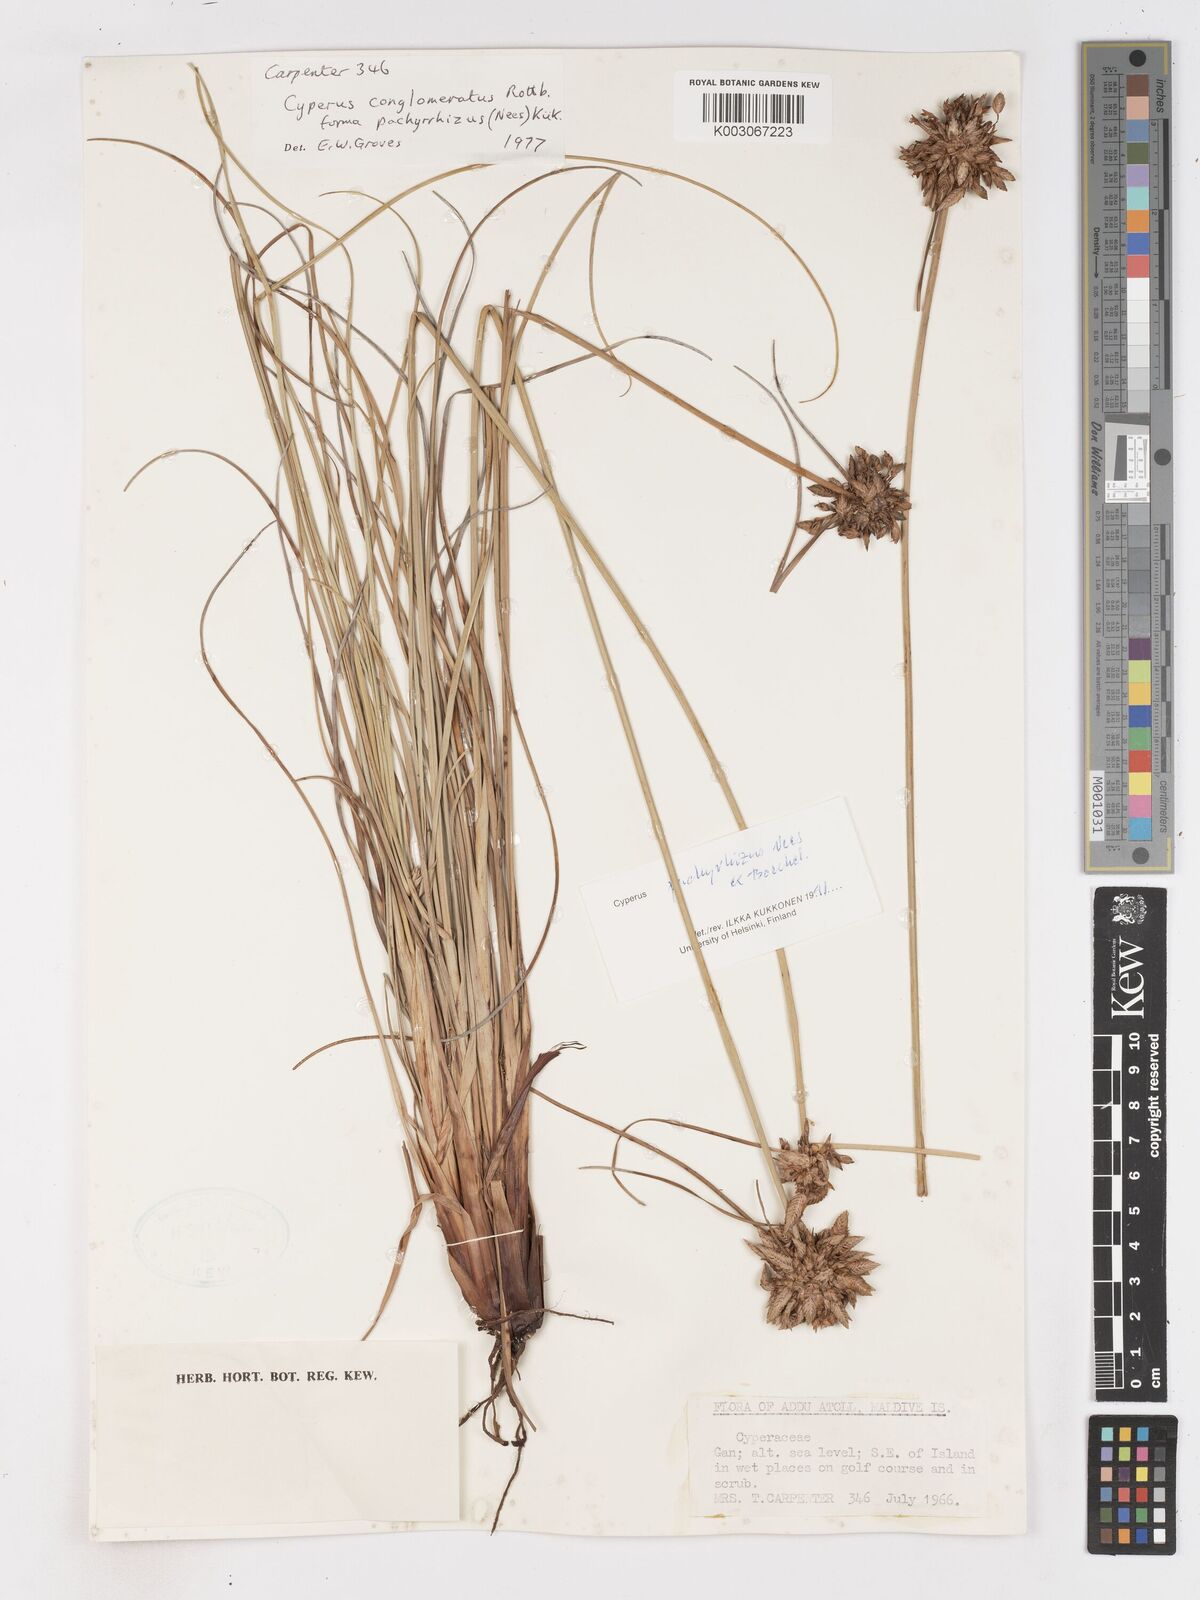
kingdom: Plantae
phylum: Tracheophyta
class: Liliopsida
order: Poales
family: Cyperaceae
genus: Cyperus
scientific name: Cyperus pachyrhizus
